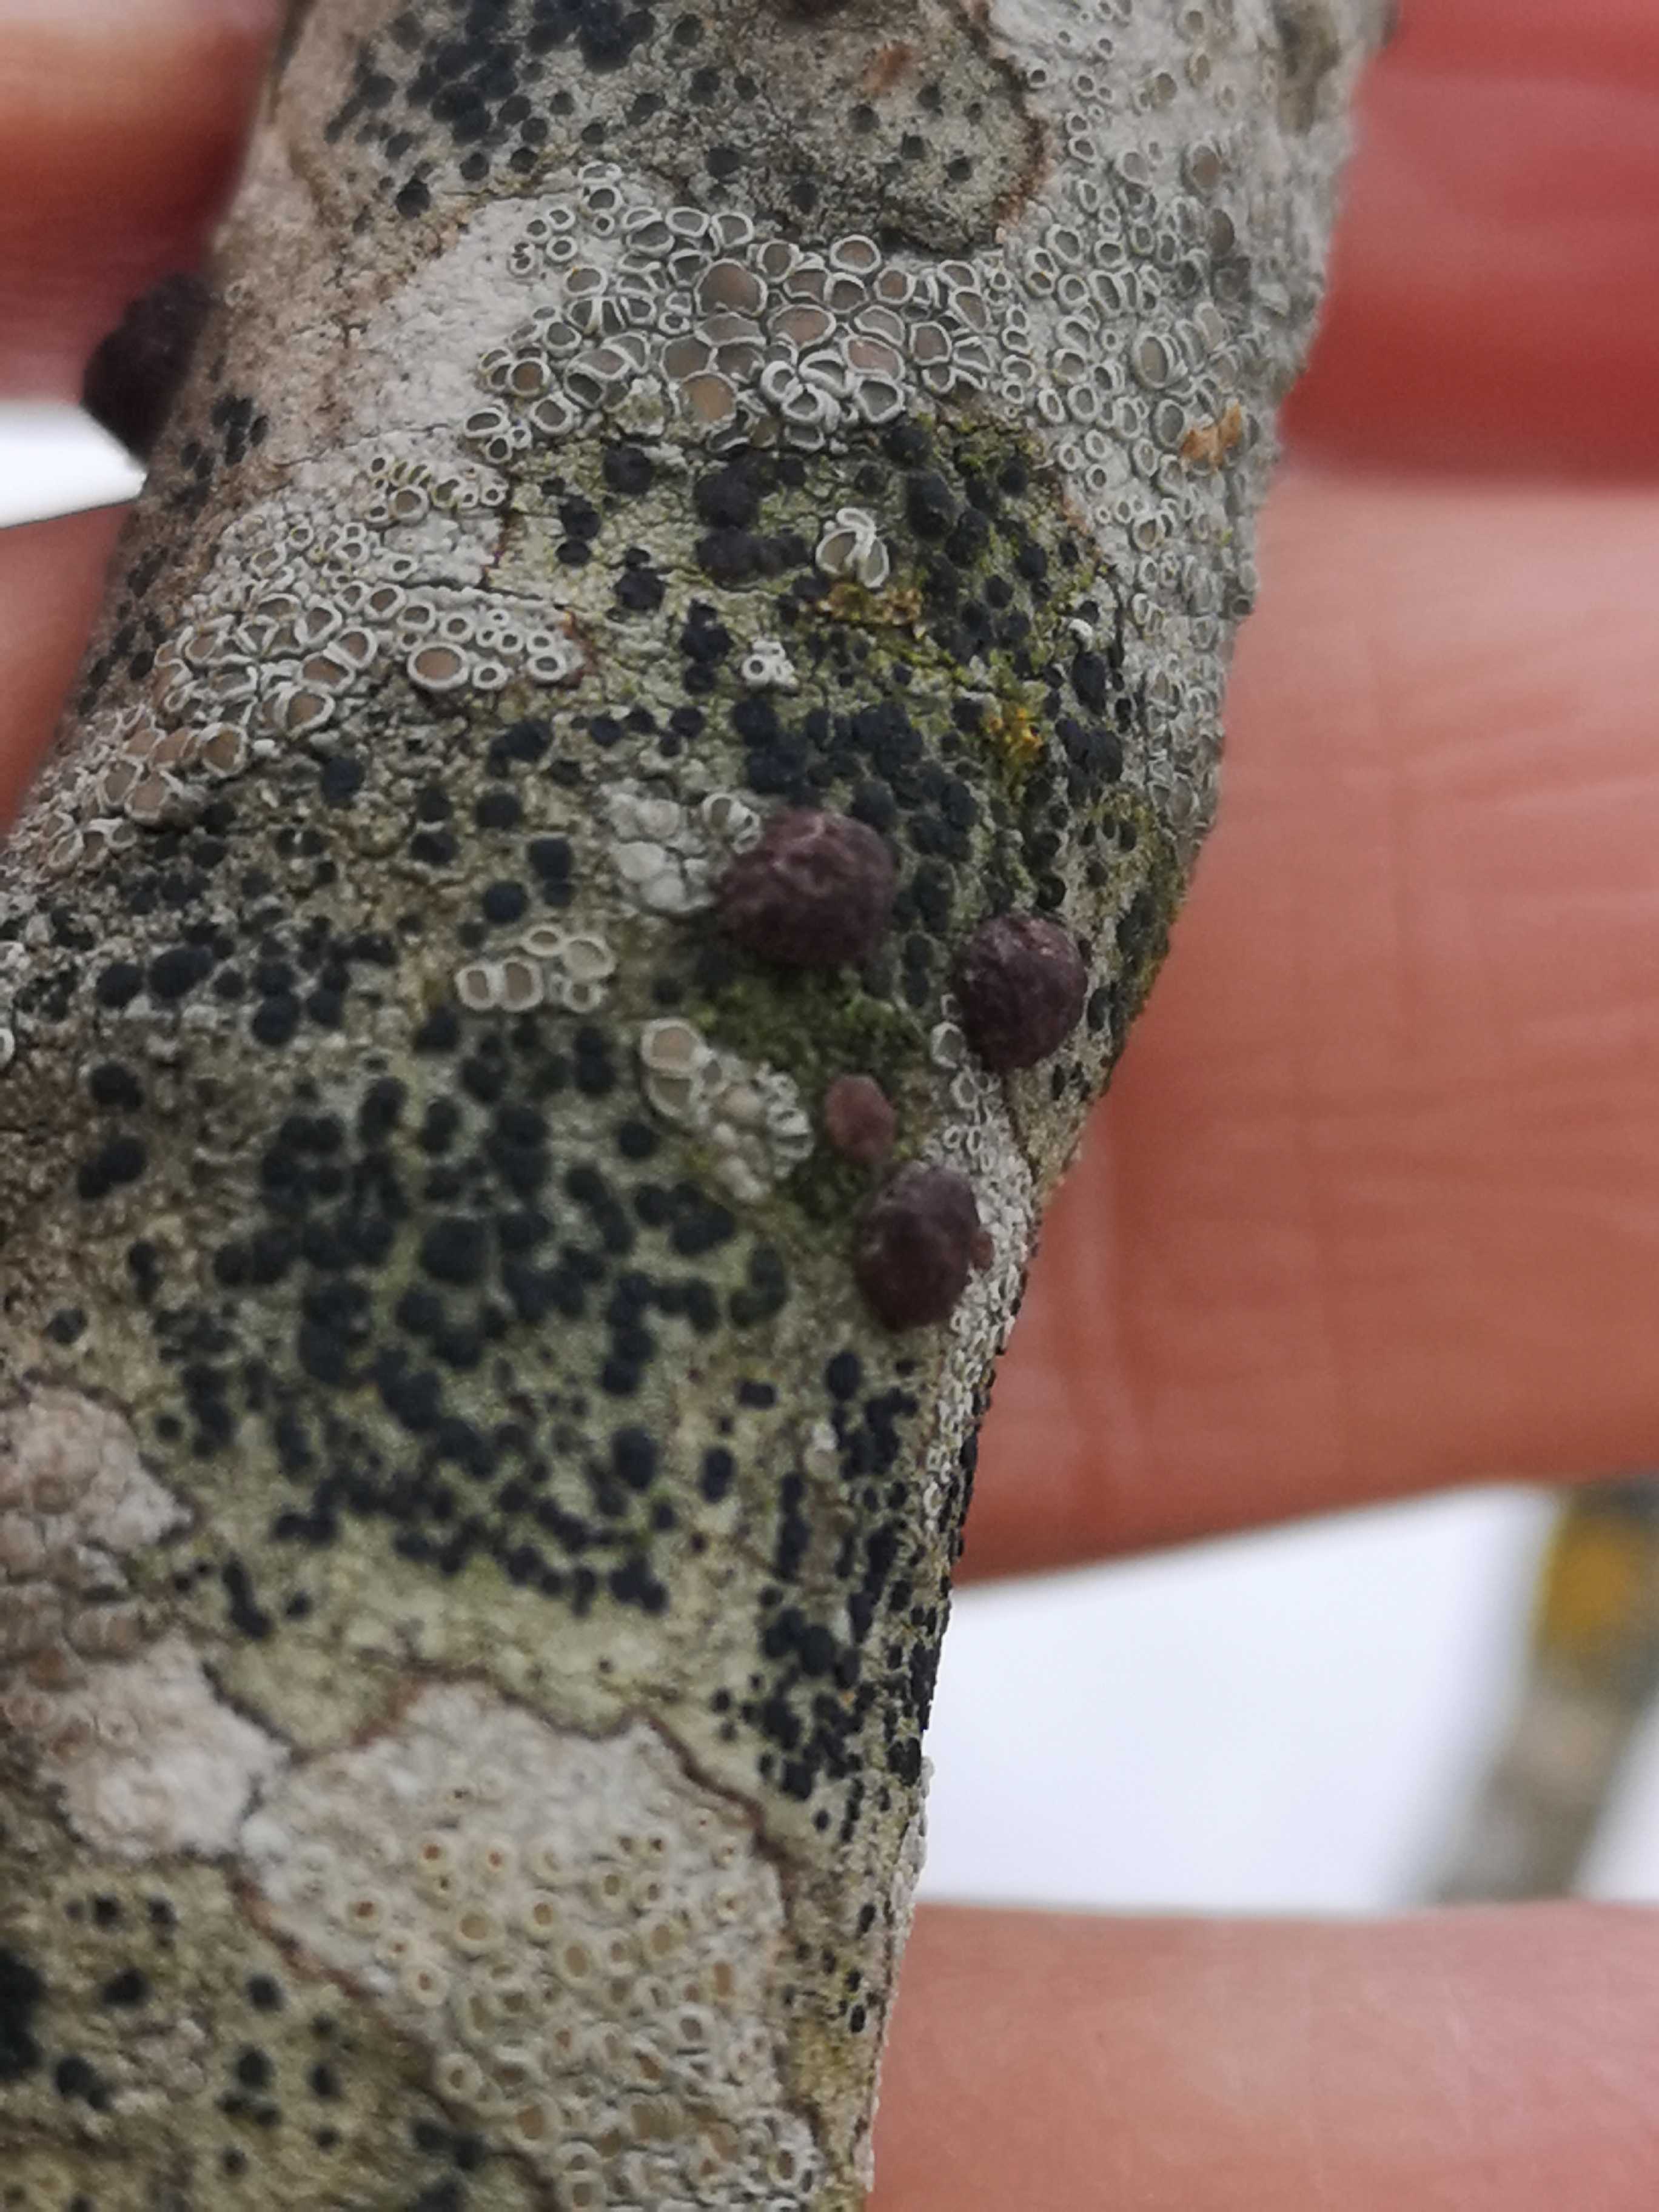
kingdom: Fungi
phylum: Ascomycota
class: Sordariomycetes
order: Xylariales
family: Hypoxylaceae
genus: Hypoxylon
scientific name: Hypoxylon
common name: kulbær
